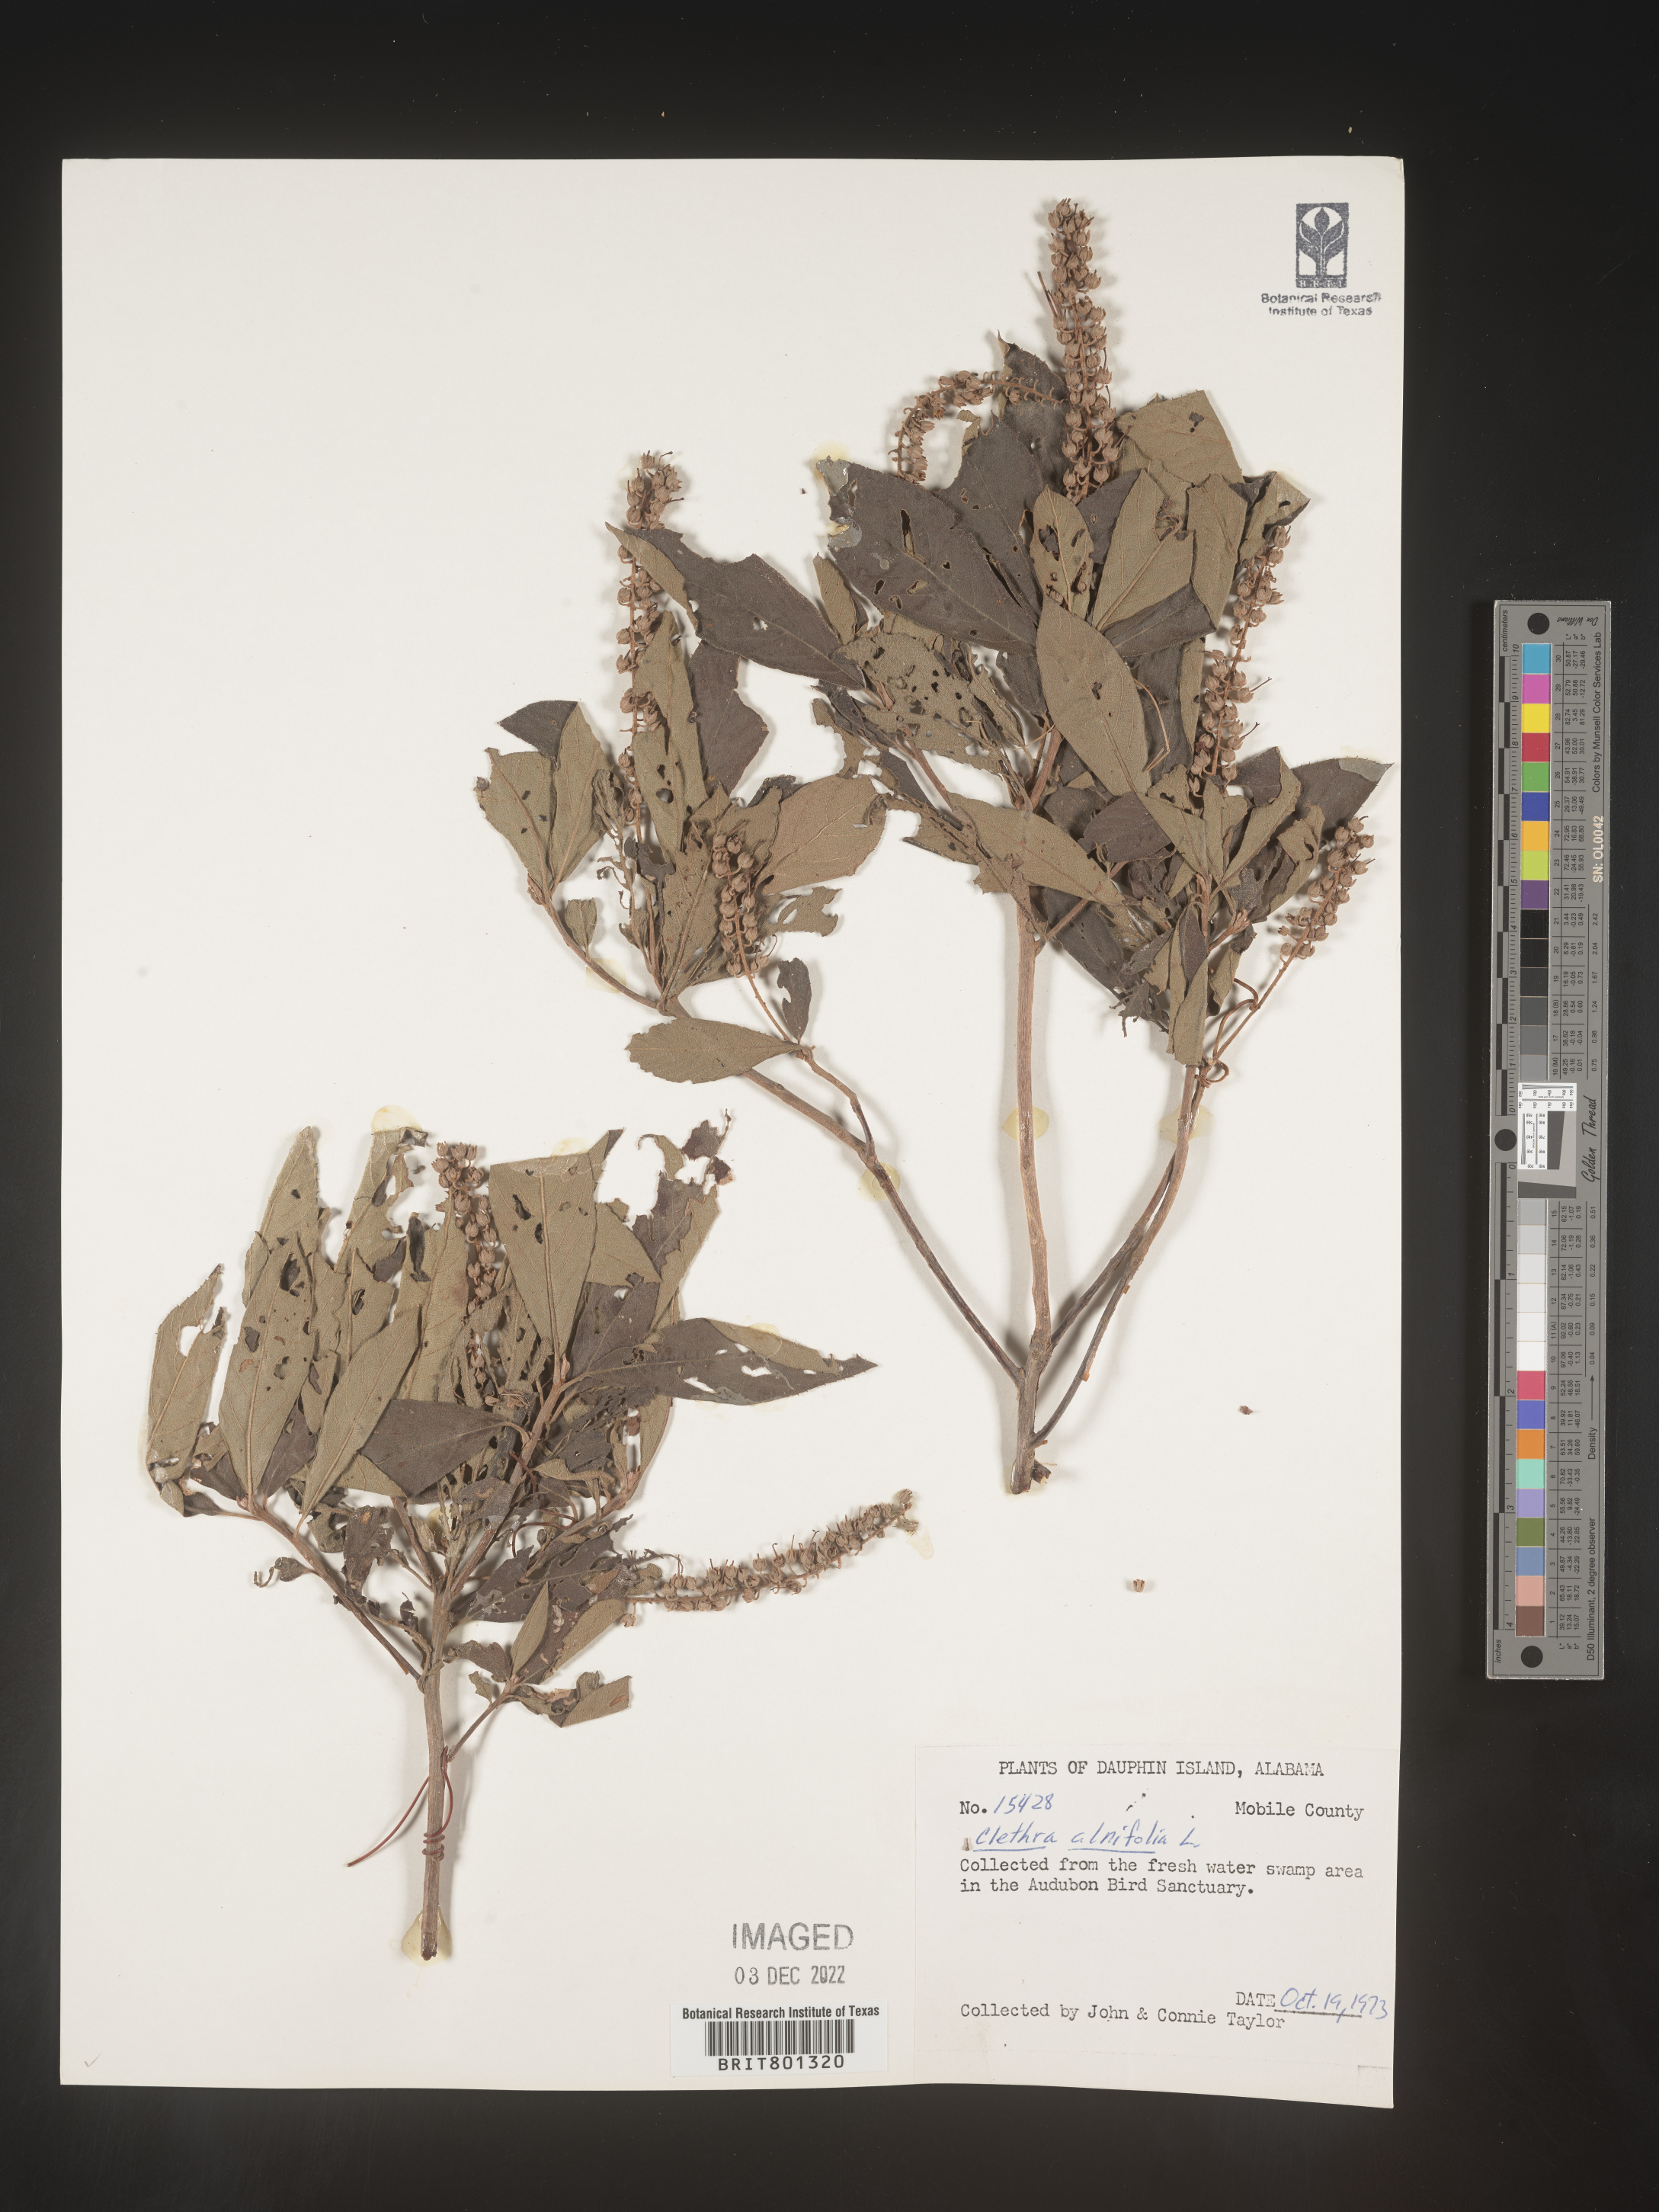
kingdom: Plantae
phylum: Tracheophyta
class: Magnoliopsida
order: Ericales
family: Clethraceae
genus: Clethra
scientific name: Clethra alnifolia
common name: Sweet pepperbush
